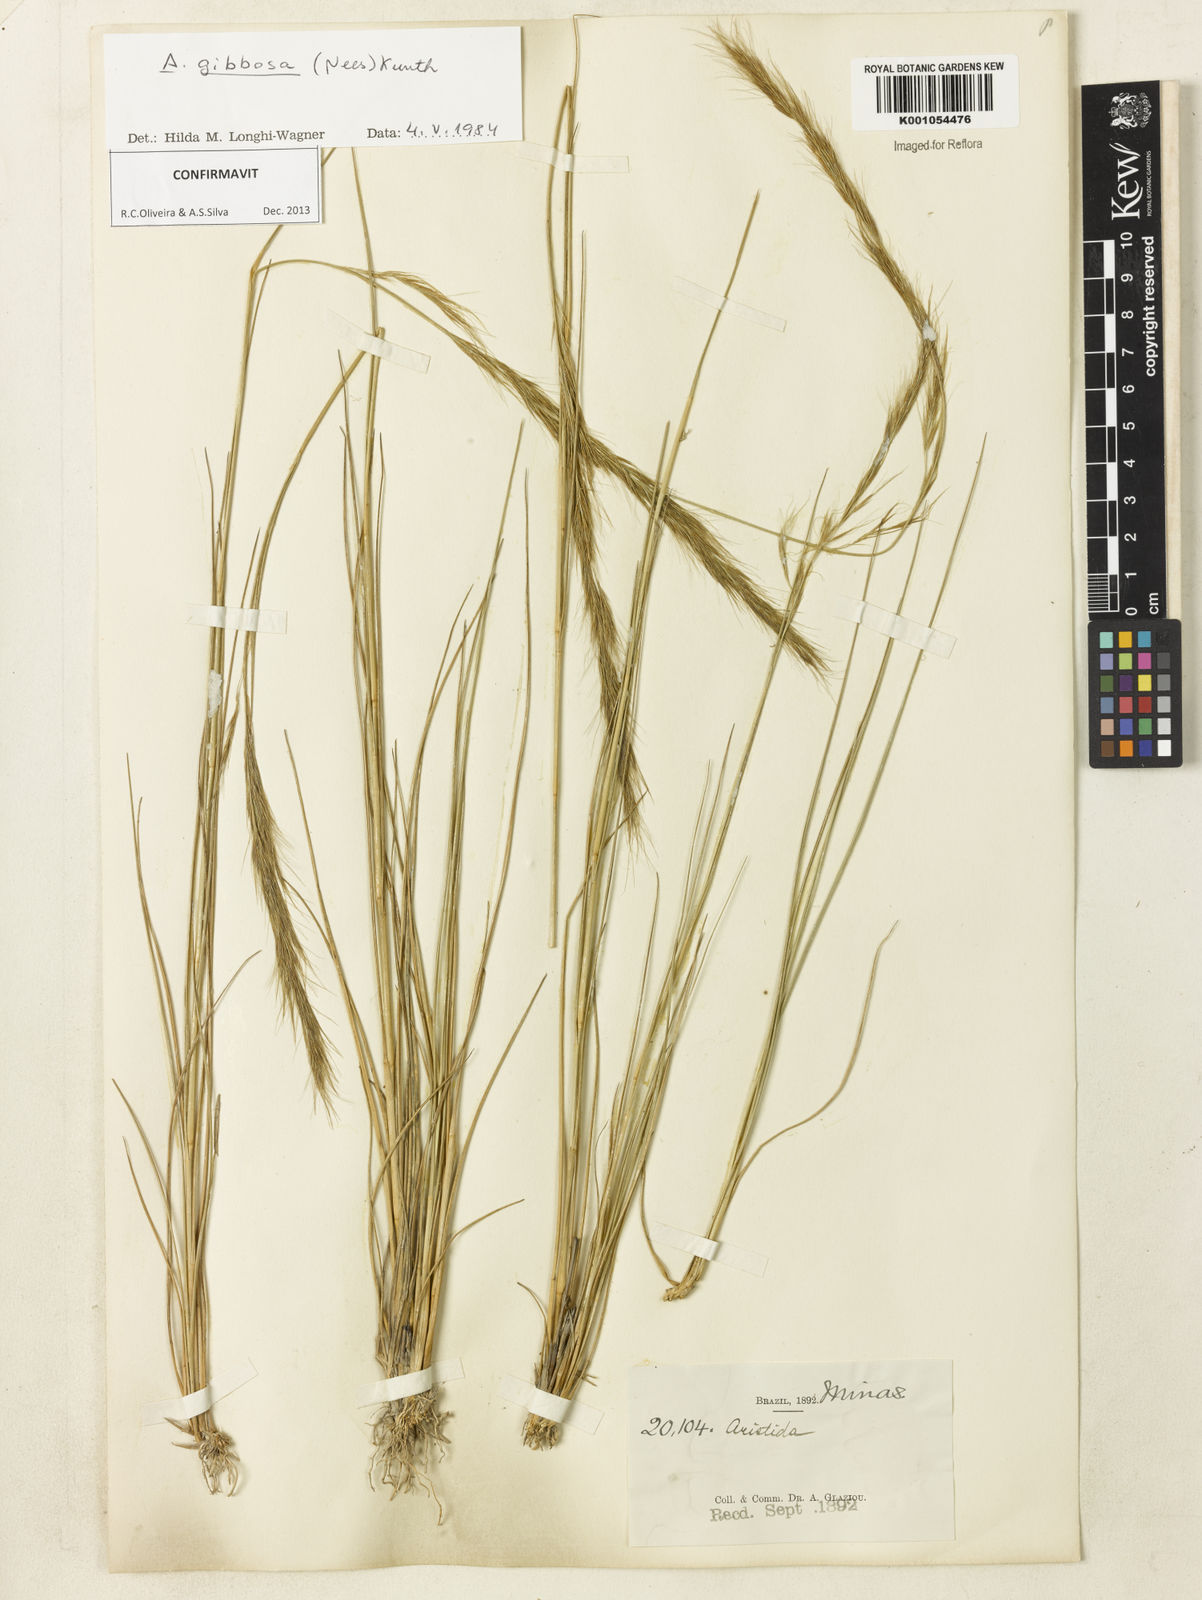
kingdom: Plantae
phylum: Tracheophyta
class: Liliopsida
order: Poales
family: Poaceae
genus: Aristida
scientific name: Aristida gibbosa
